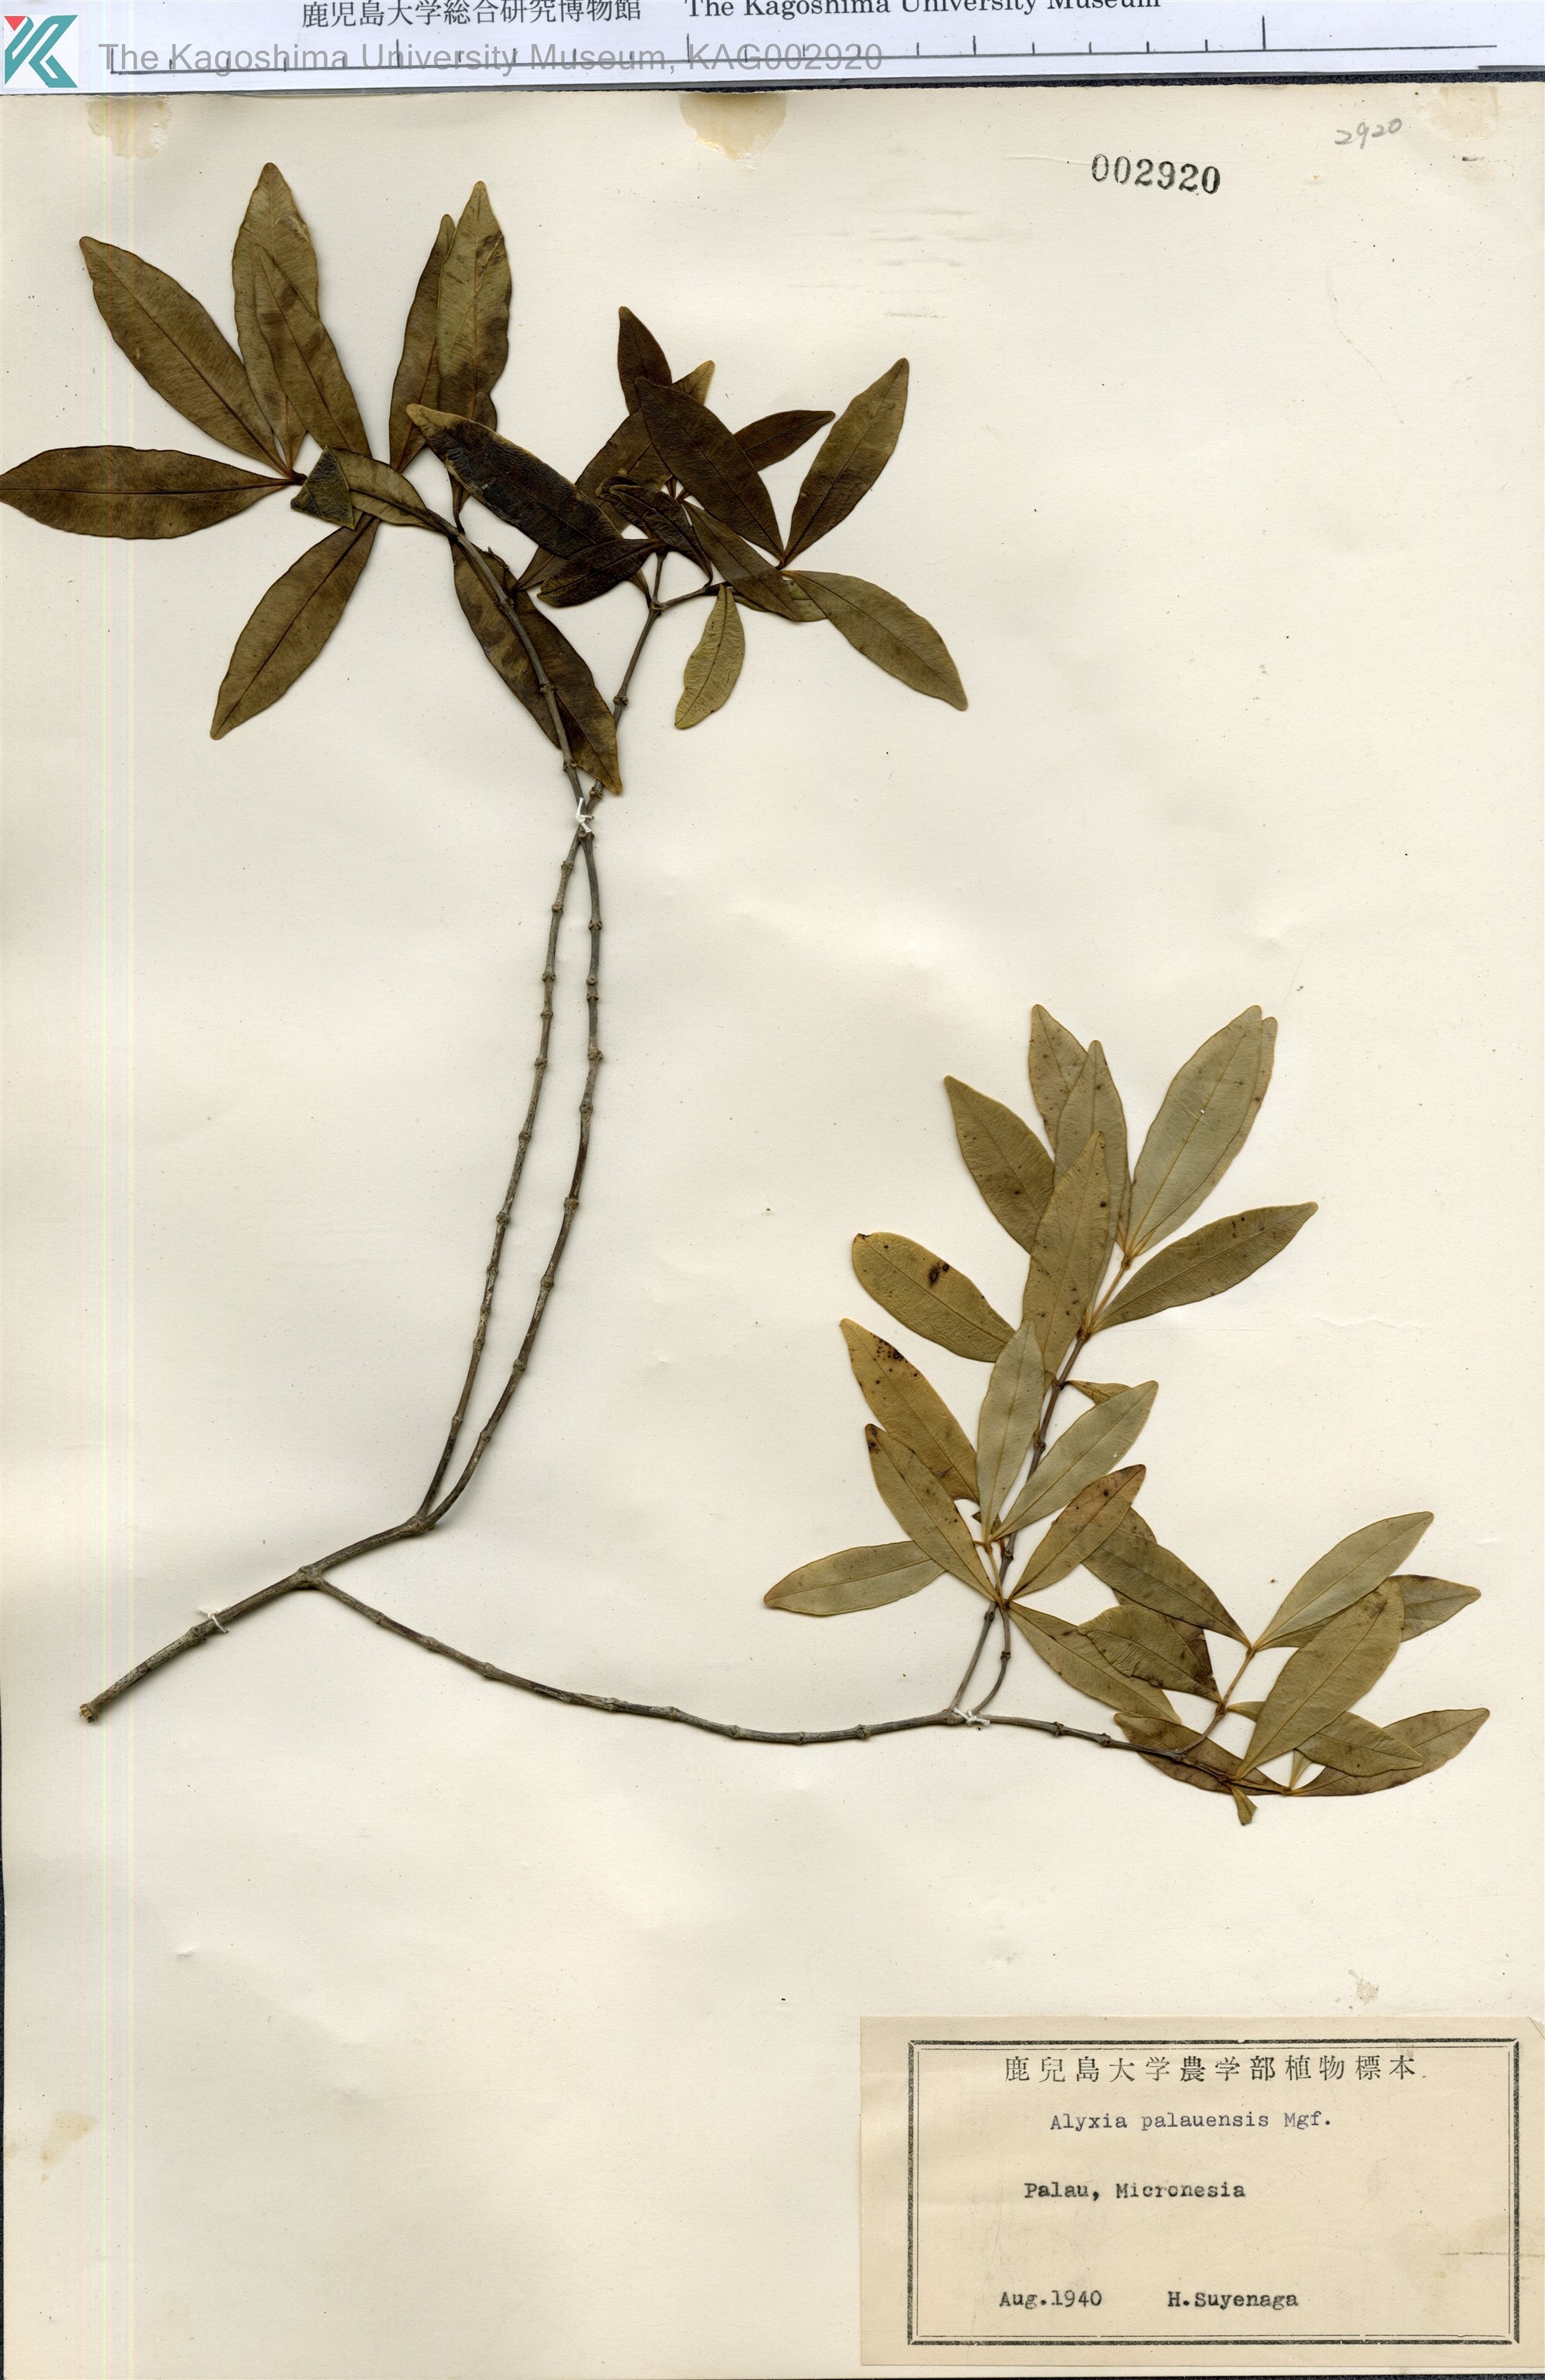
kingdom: Plantae
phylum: Tracheophyta
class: Magnoliopsida
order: Gentianales
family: Apocynaceae
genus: Alyxia
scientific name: Alyxia stellata
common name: Maile
